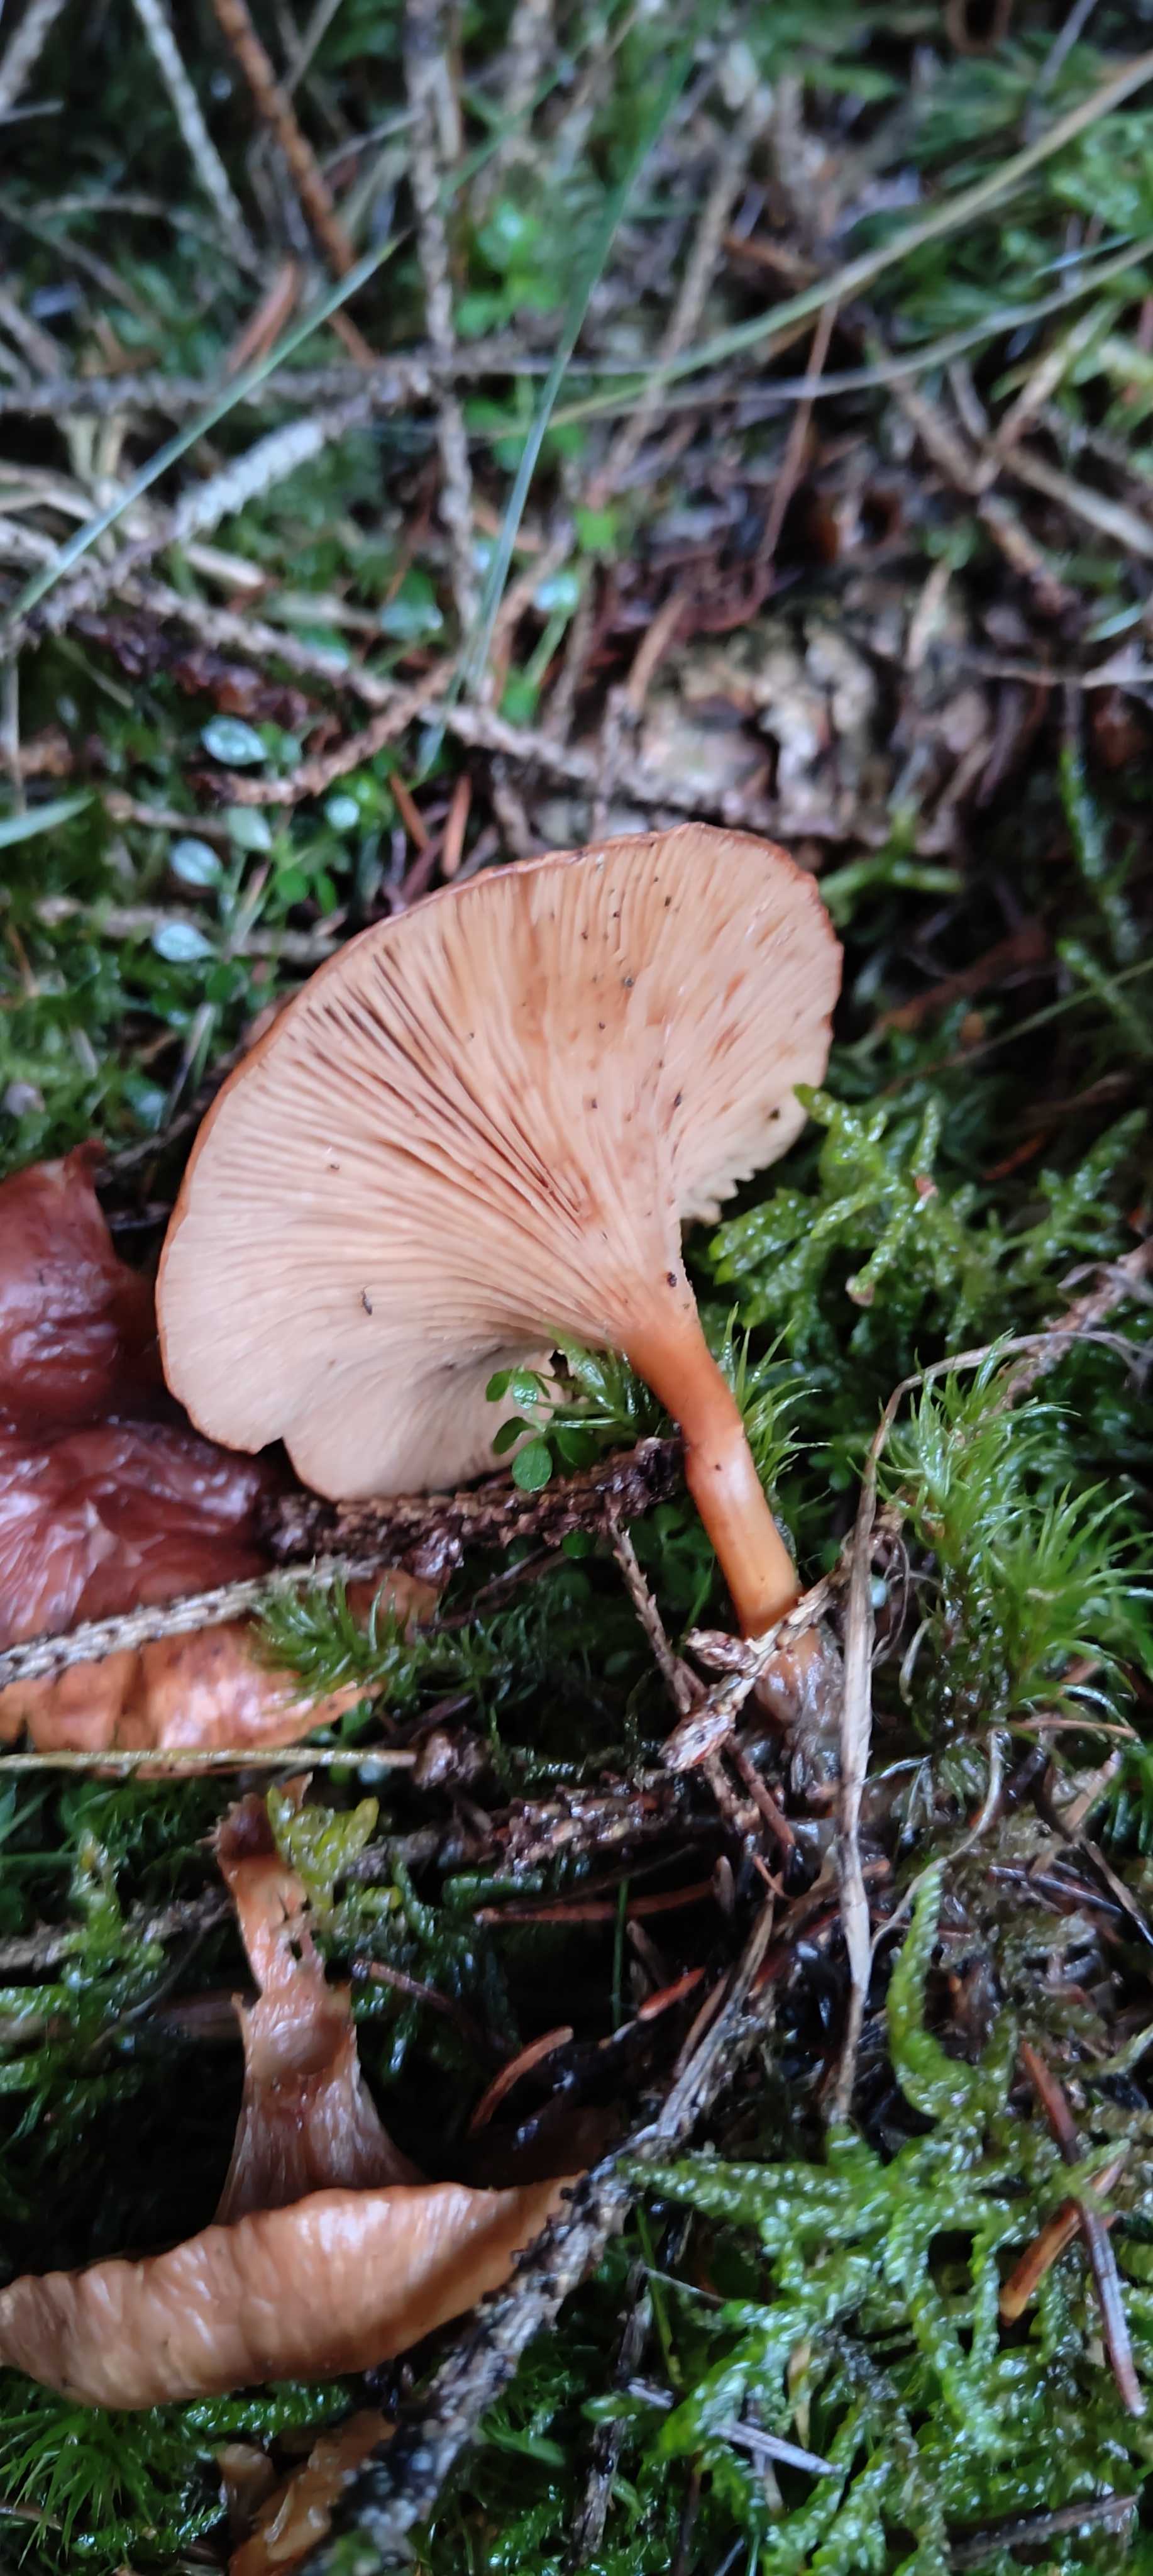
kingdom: Fungi
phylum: Basidiomycota
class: Agaricomycetes
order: Agaricales
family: Tricholomataceae
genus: Paralepista
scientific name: Paralepista flaccida
